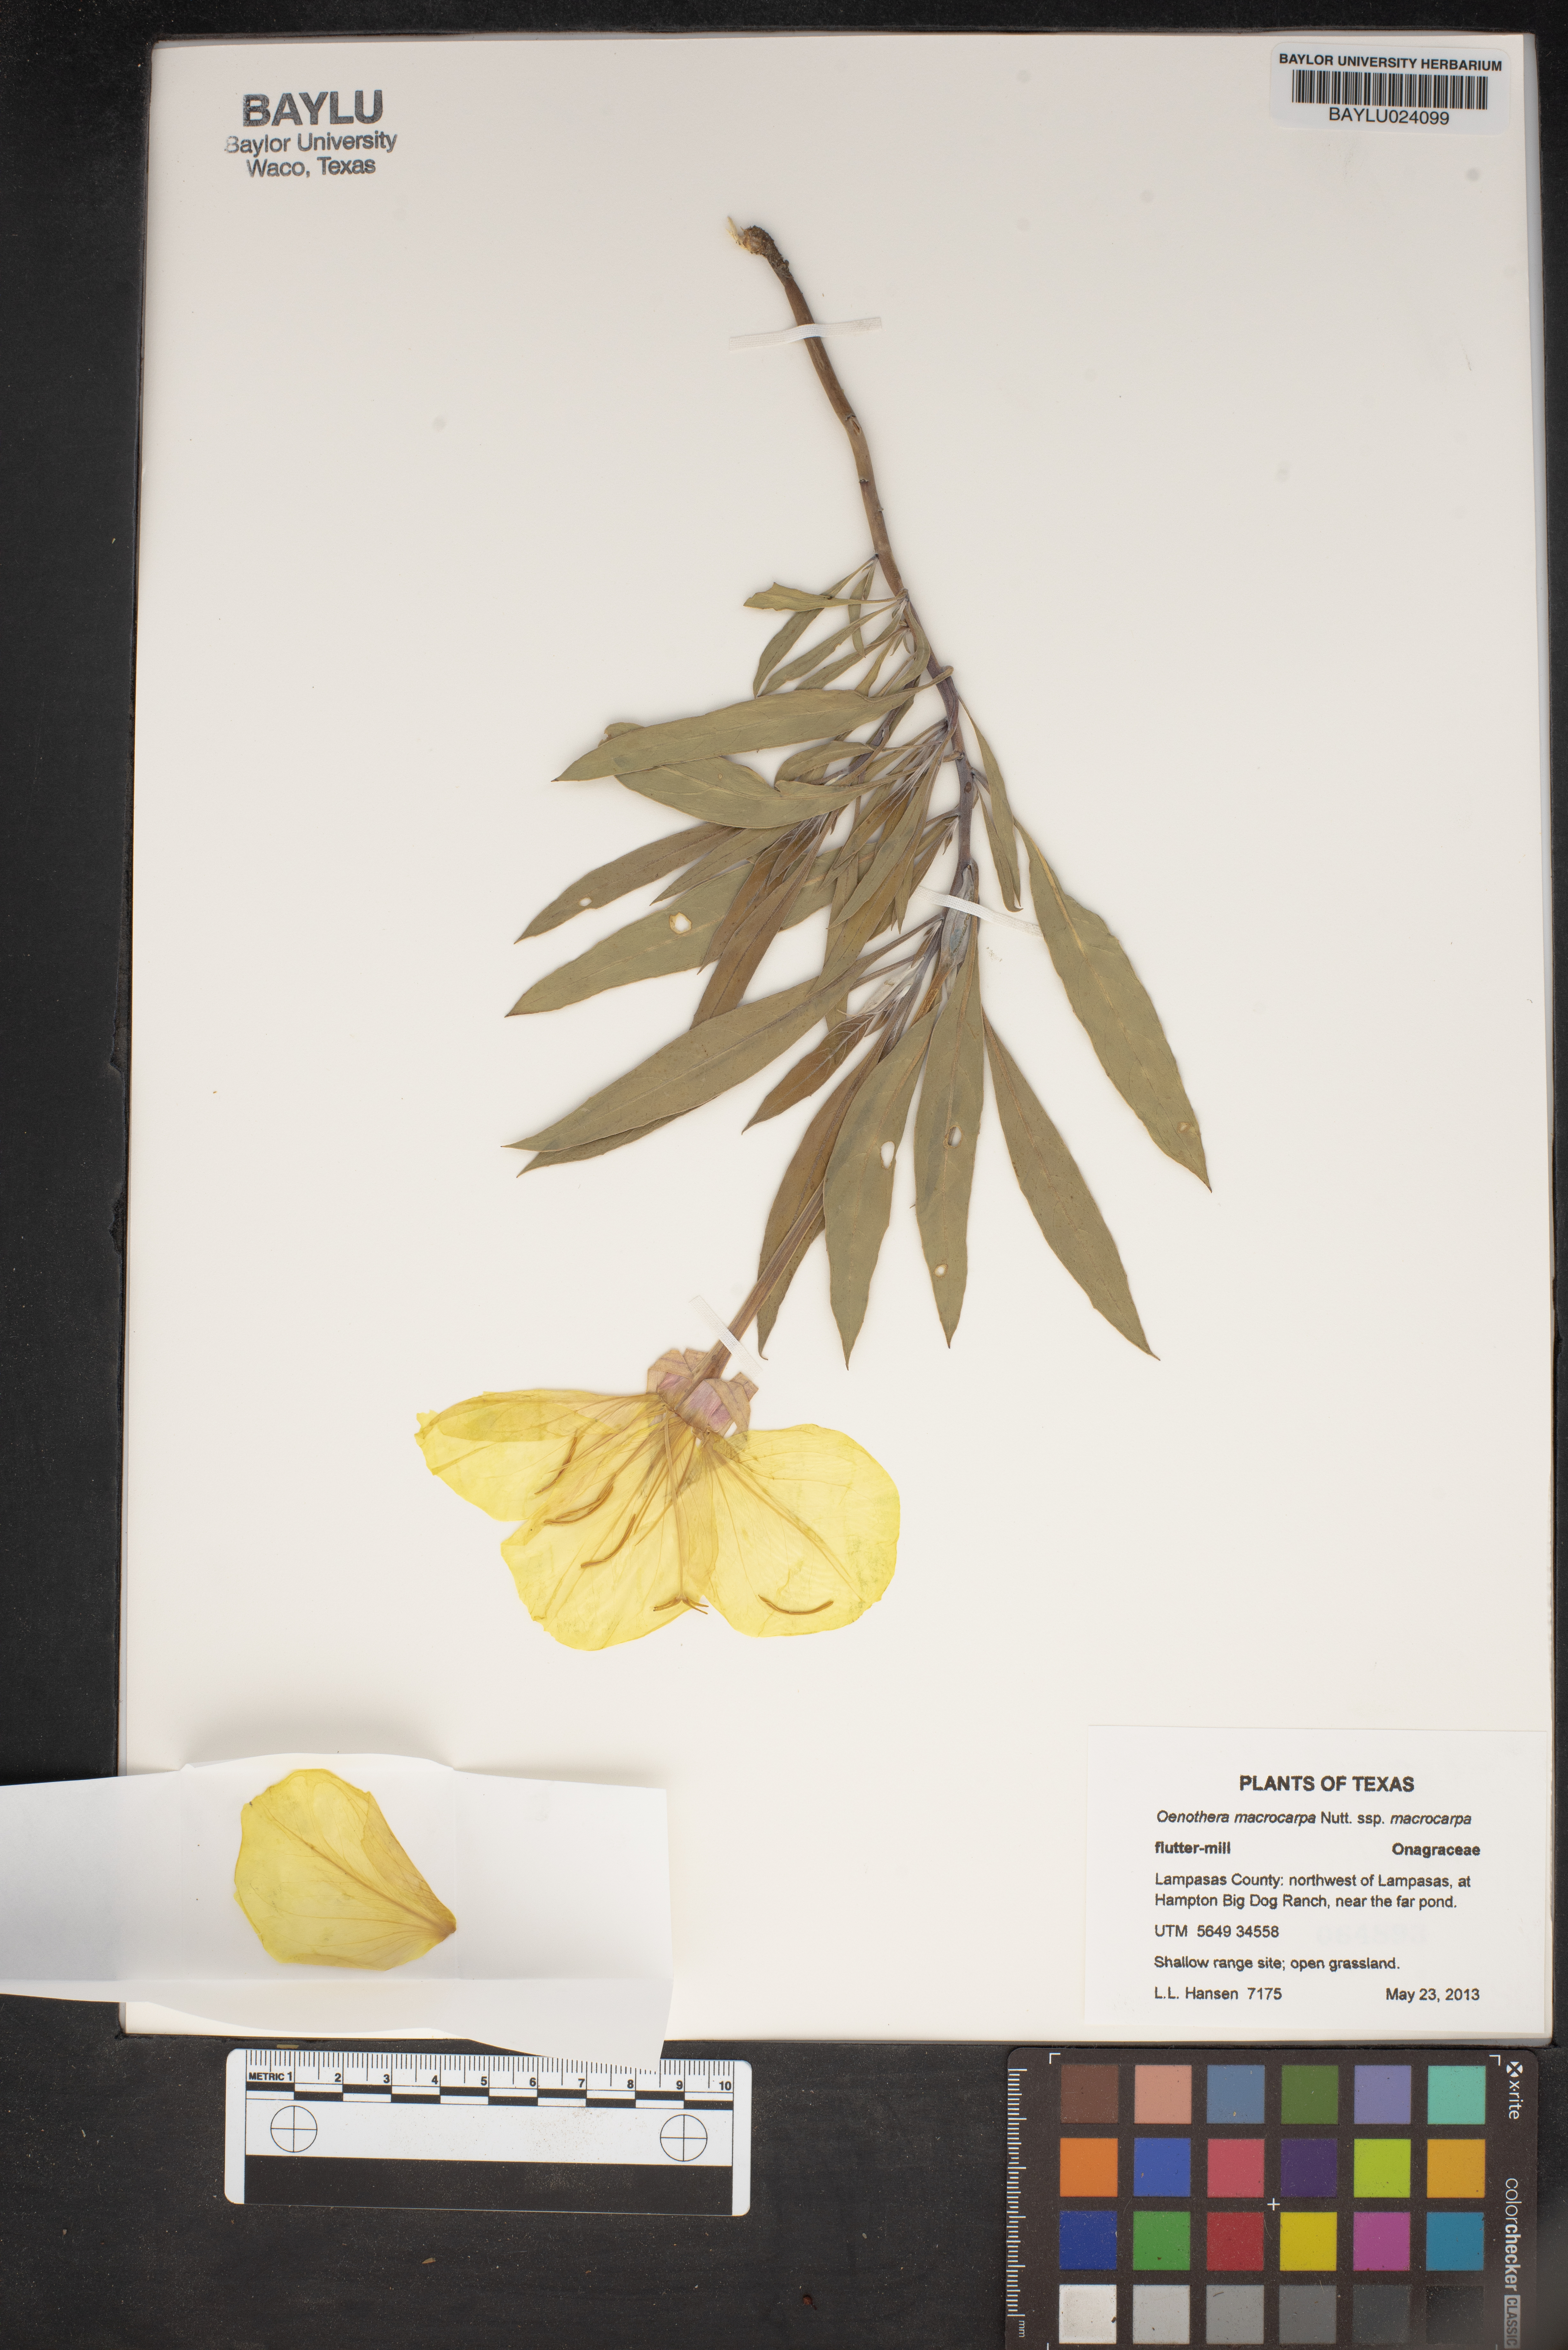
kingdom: Plantae
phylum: Tracheophyta
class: Magnoliopsida
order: Myrtales
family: Onagraceae
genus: Oenothera
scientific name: Oenothera macrocarpa
